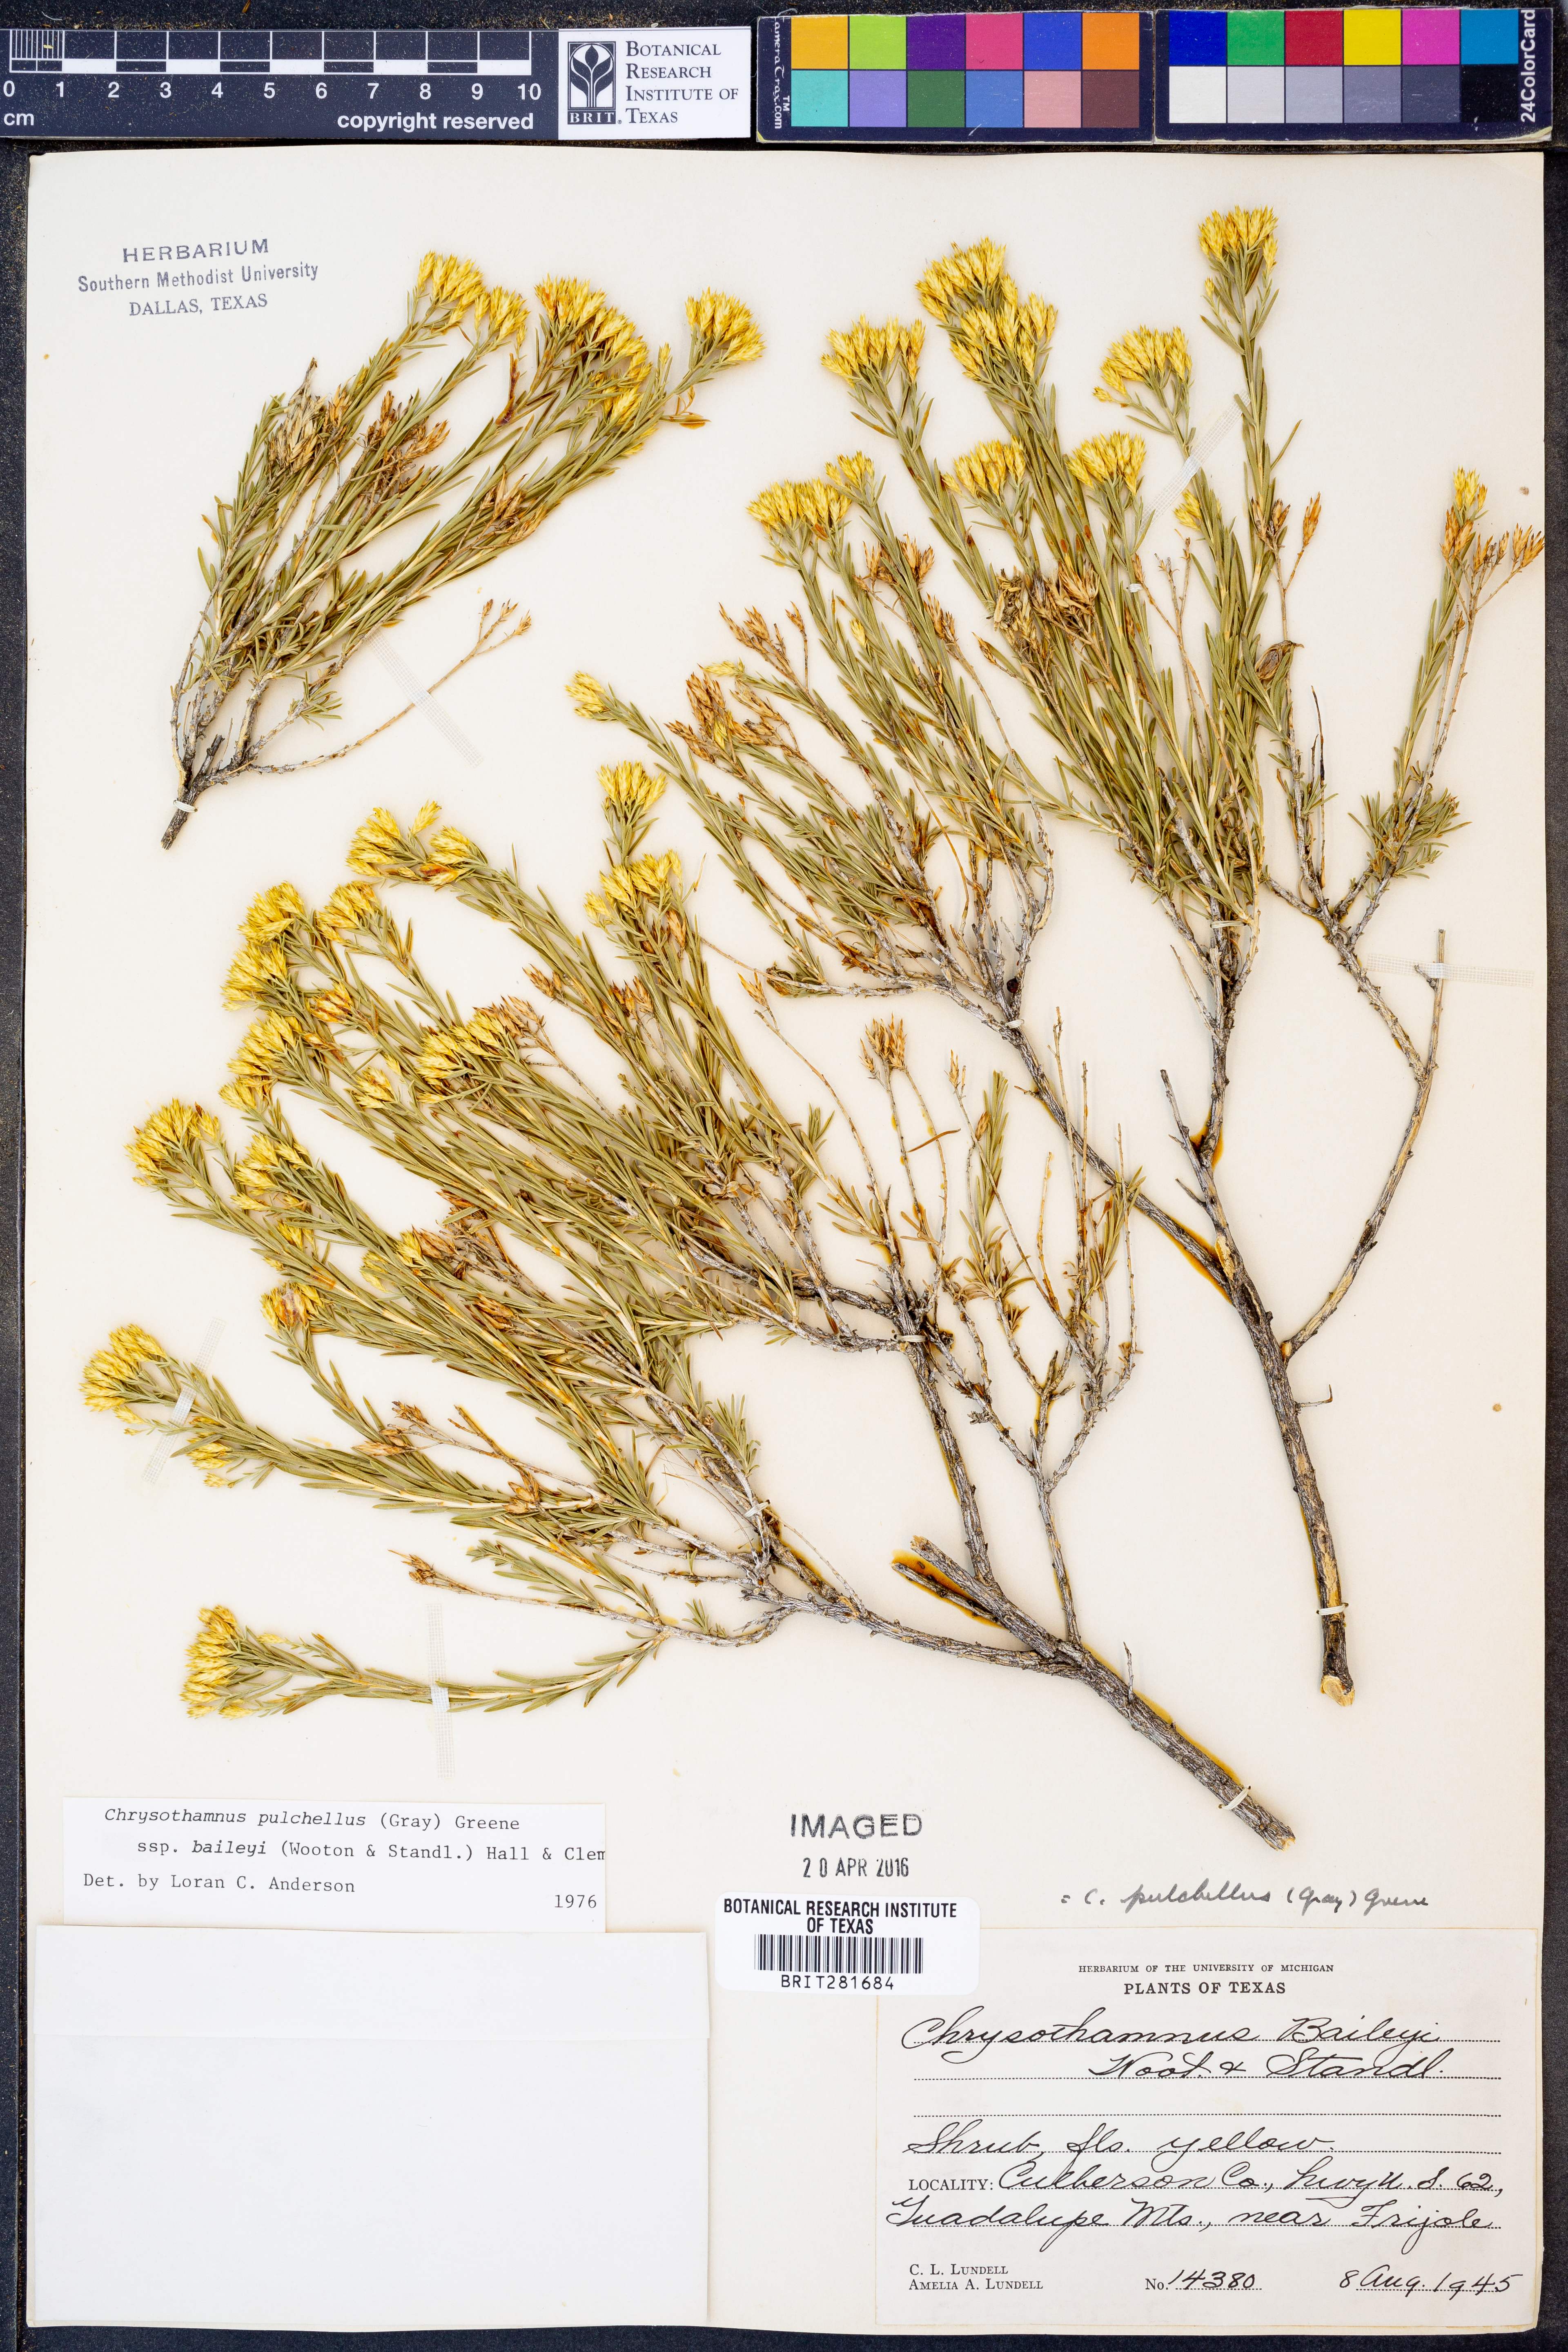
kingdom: Plantae
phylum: Tracheophyta
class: Magnoliopsida
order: Asterales
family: Asteraceae
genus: Lorandersonia
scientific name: Lorandersonia baileyi
